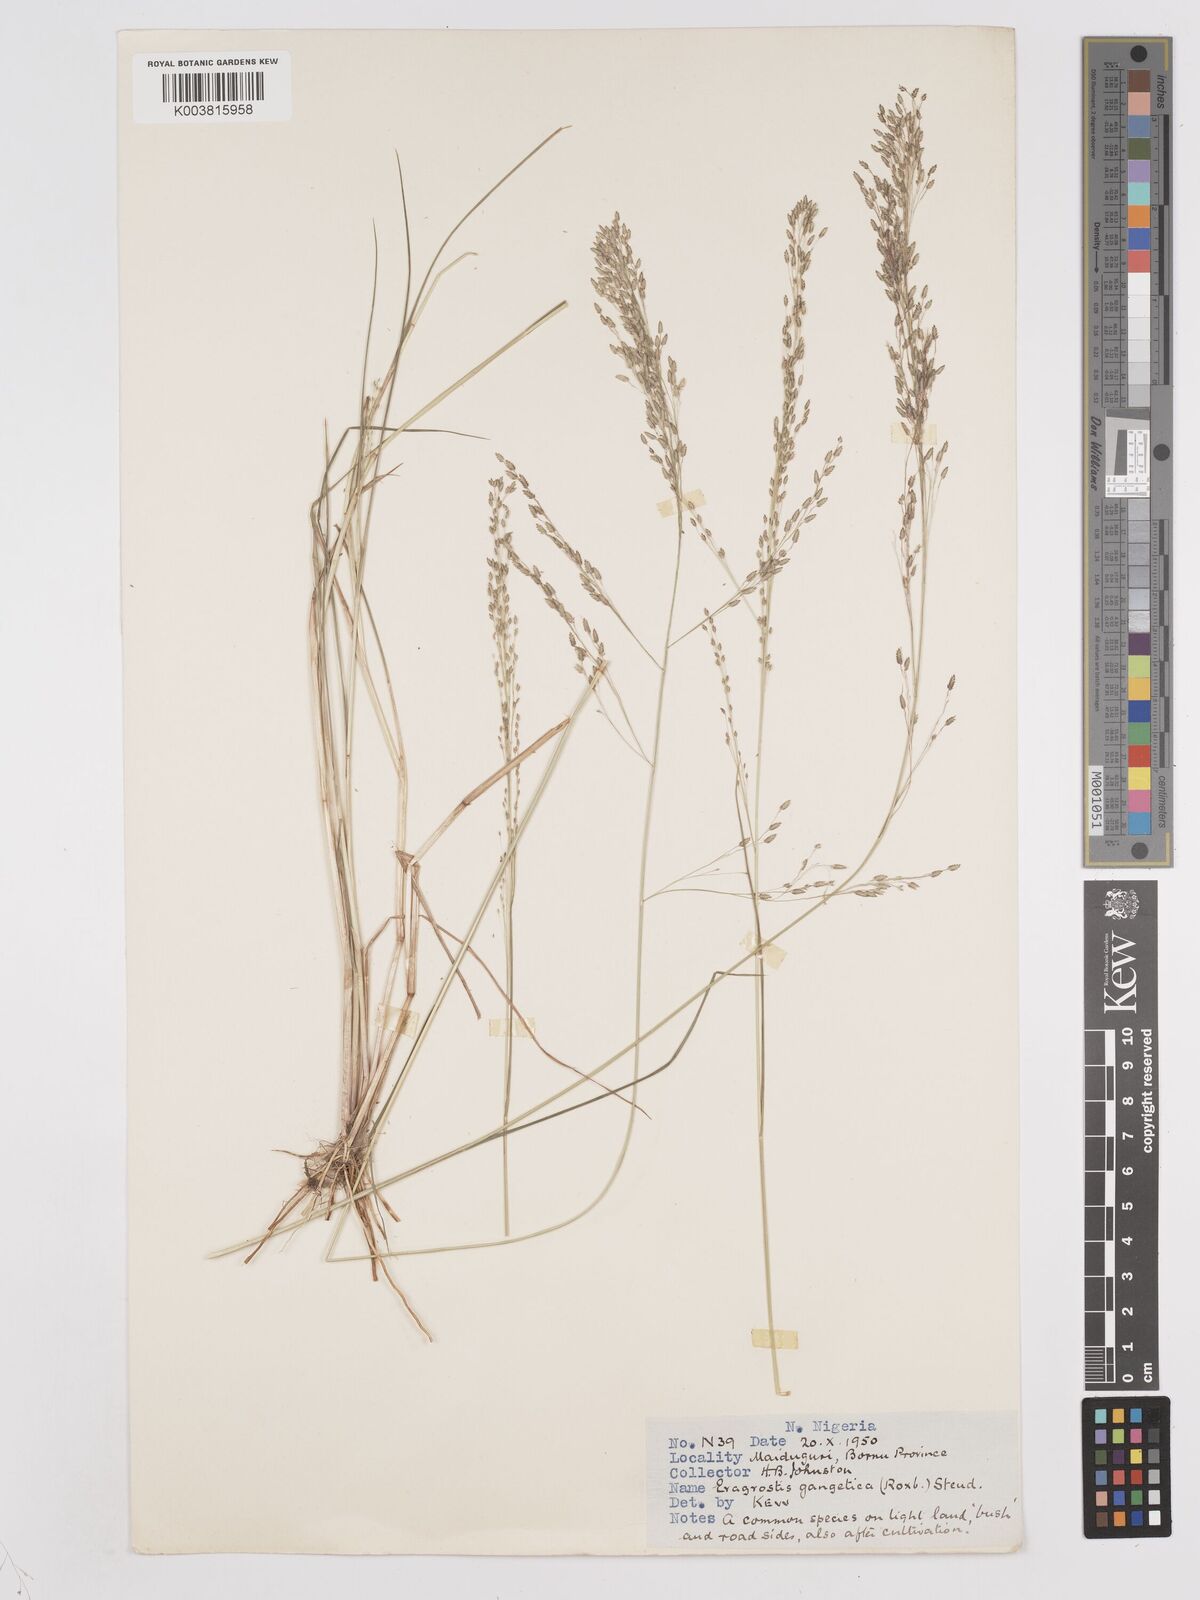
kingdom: Plantae
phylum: Tracheophyta
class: Liliopsida
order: Poales
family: Poaceae
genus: Eragrostis
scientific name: Eragrostis gangetica
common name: Slimflower lovegrass
